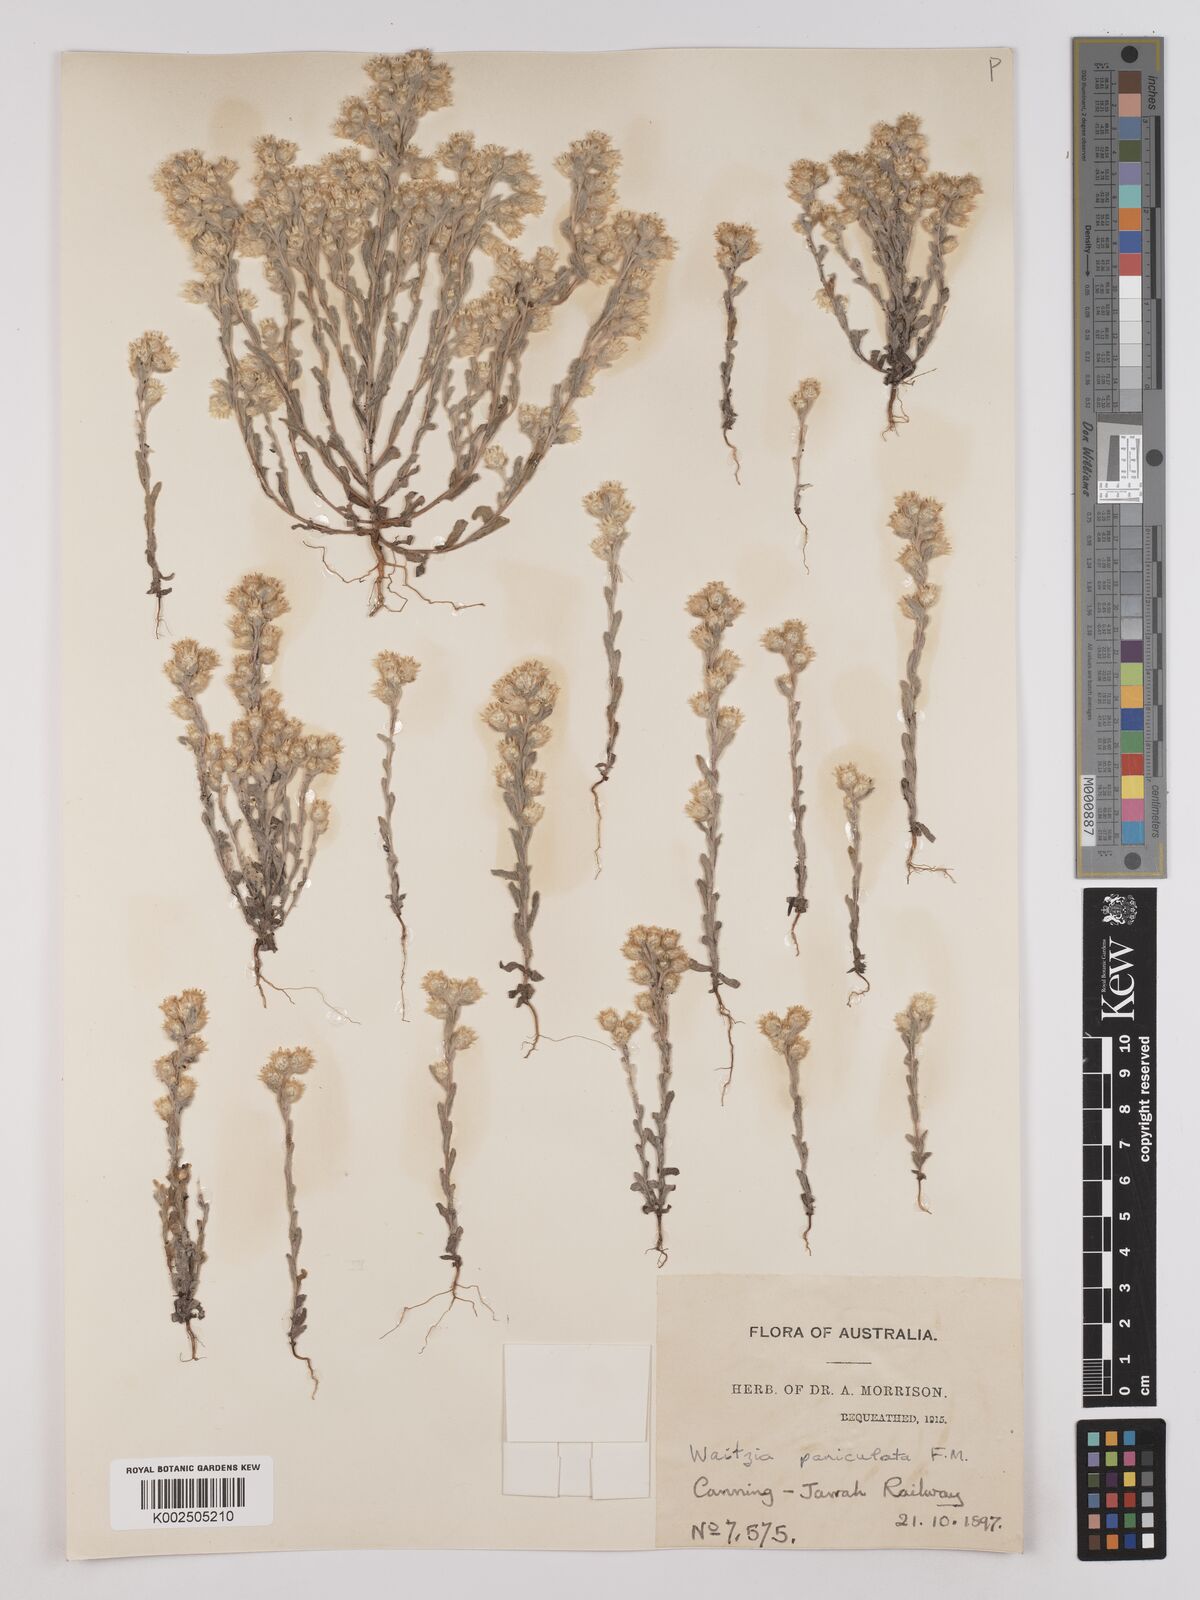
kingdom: Plantae
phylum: Tracheophyta
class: Magnoliopsida
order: Asterales
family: Asteraceae
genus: Pterochaeta
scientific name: Pterochaeta paniculata
